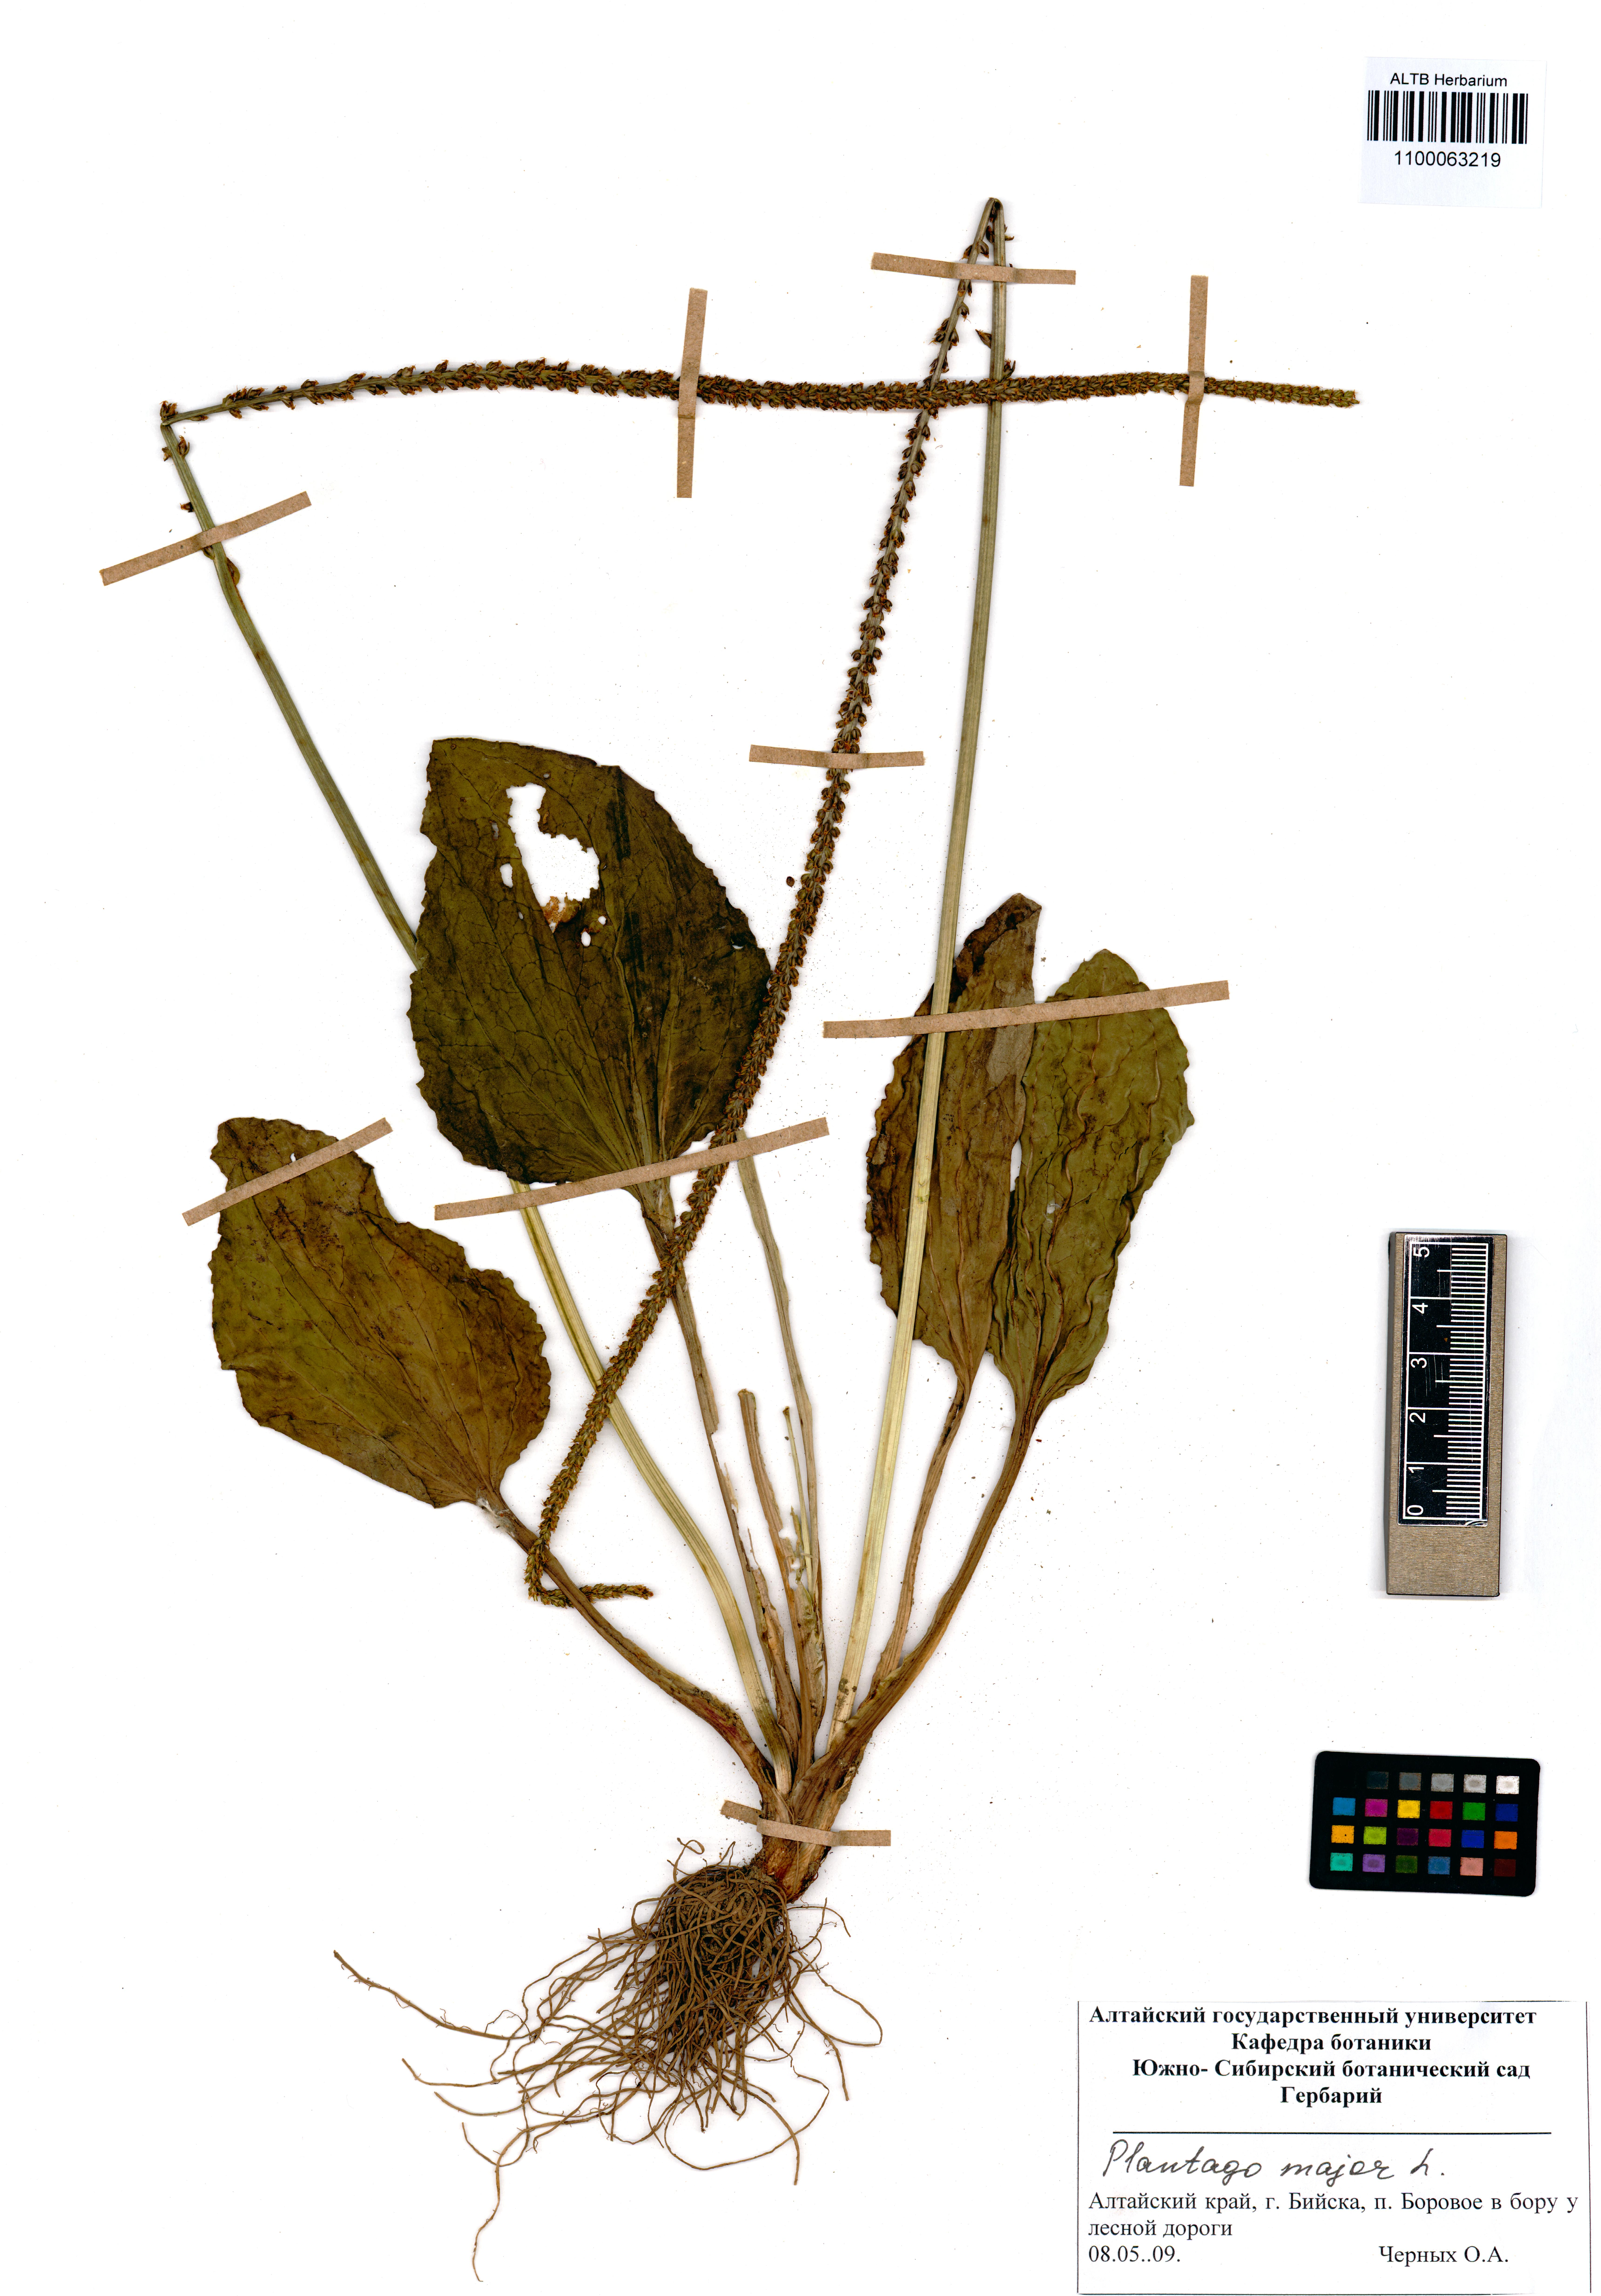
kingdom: Plantae
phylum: Tracheophyta
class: Magnoliopsida
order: Lamiales
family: Plantaginaceae
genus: Plantago
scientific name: Plantago major
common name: Common plantain
